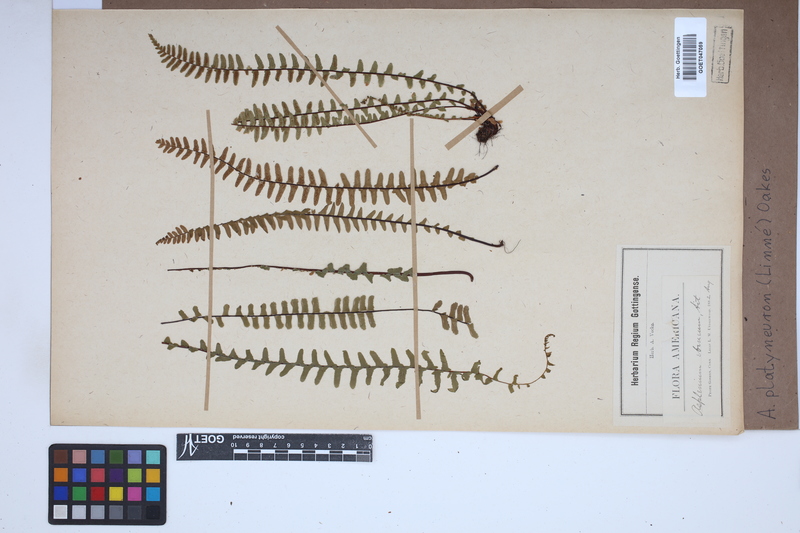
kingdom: Plantae
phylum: Tracheophyta
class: Polypodiopsida
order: Polypodiales
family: Aspleniaceae
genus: Asplenium
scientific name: Asplenium platyneuron
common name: Ebony spleenwort
